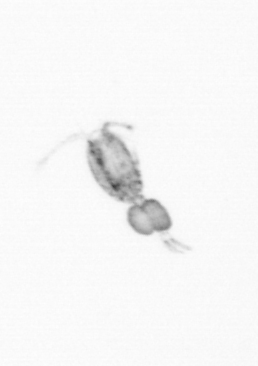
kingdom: Animalia
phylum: Arthropoda
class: Copepoda
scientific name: Copepoda
